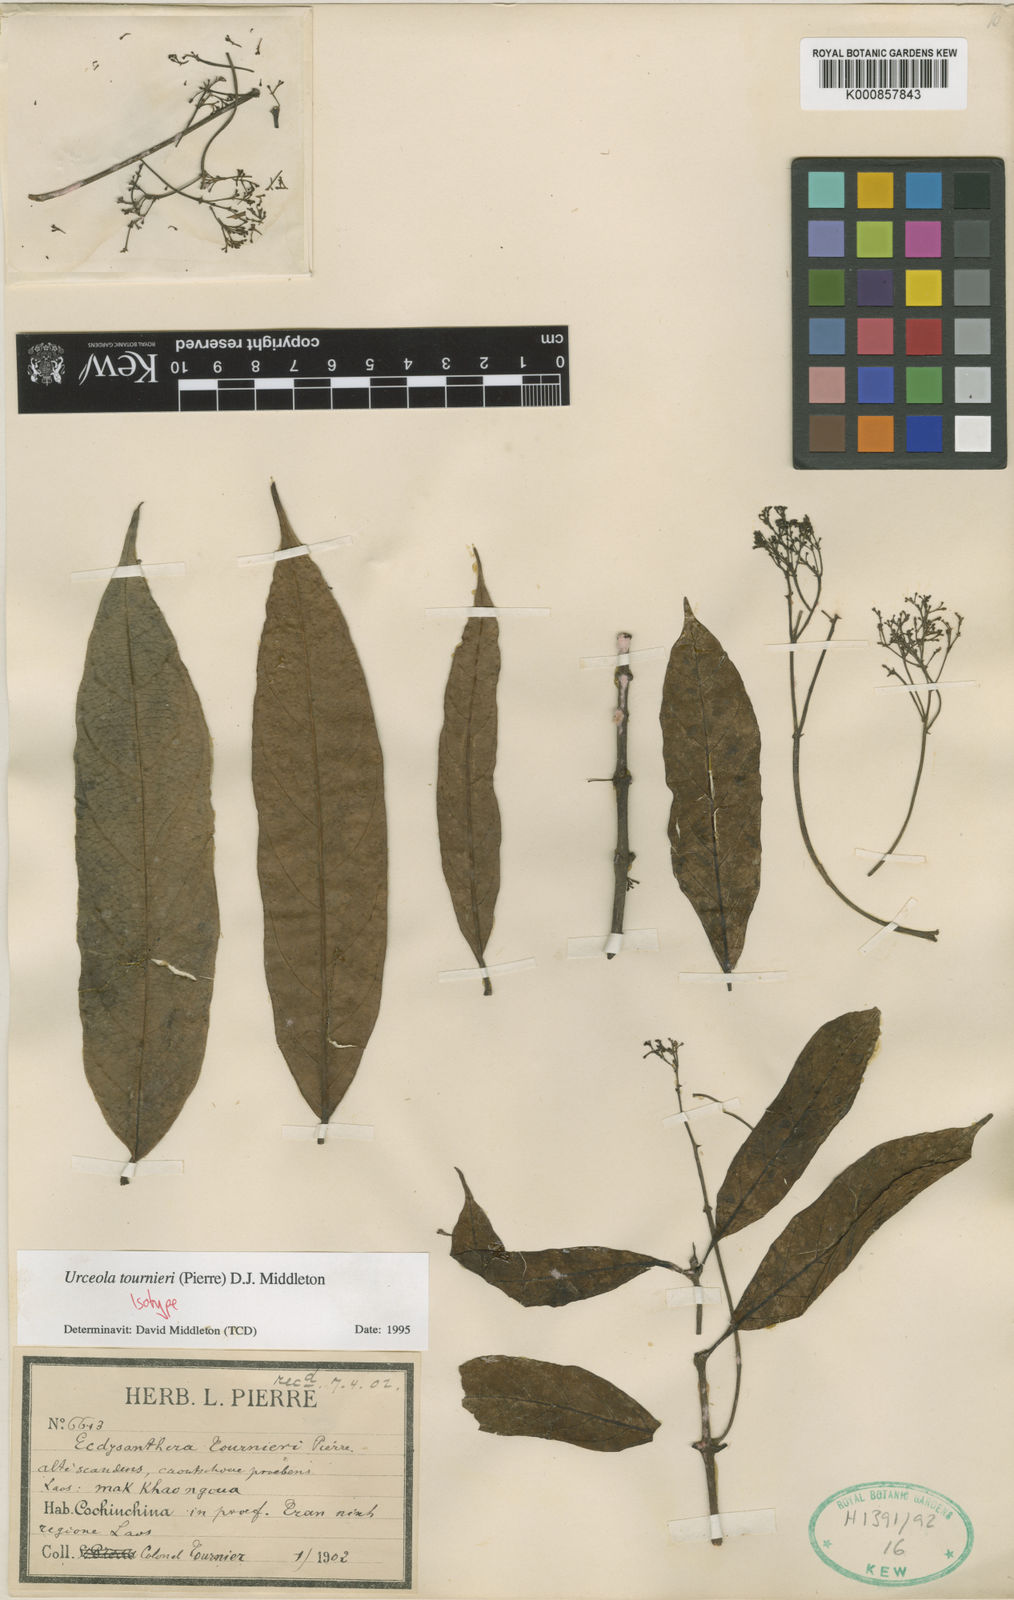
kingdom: Plantae
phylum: Tracheophyta
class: Magnoliopsida
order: Gentianales
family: Apocynaceae
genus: Urceola
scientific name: Urceola tournieri
